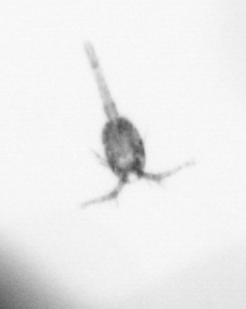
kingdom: Animalia
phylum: Arthropoda
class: Copepoda
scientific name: Copepoda
